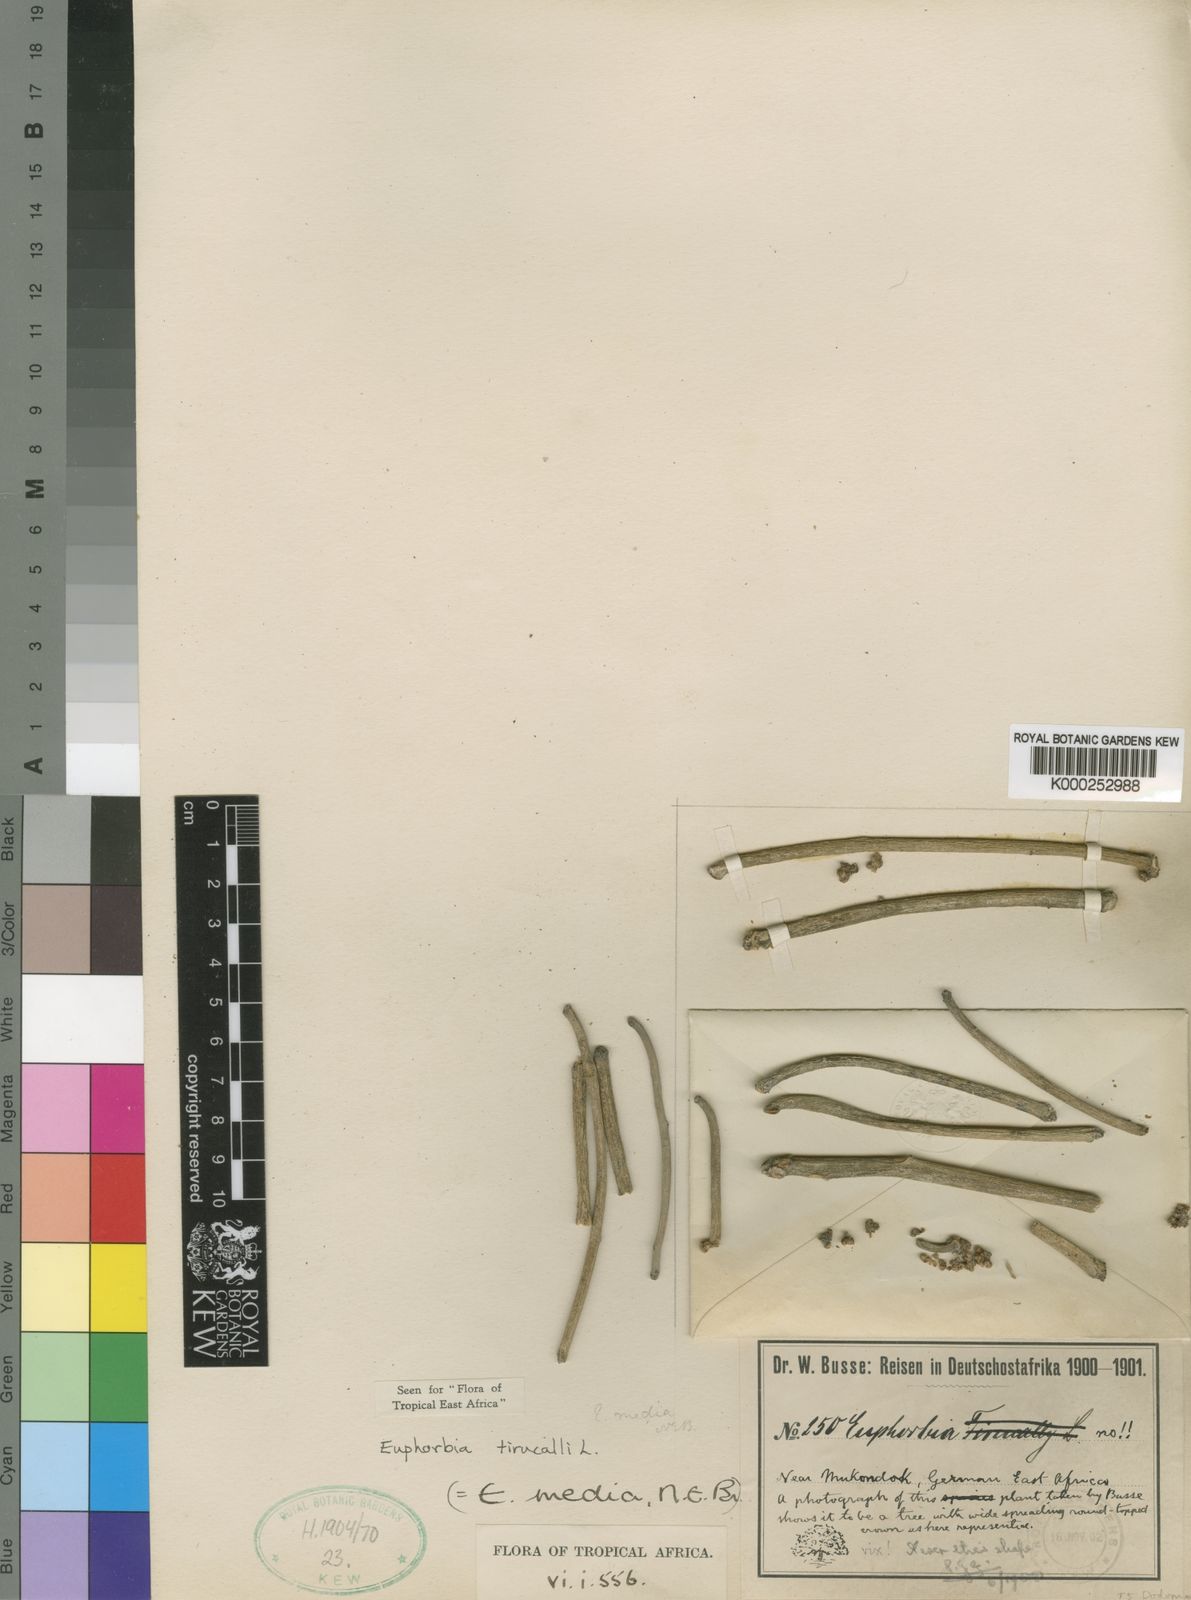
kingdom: Plantae
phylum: Tracheophyta
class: Magnoliopsida
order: Malpighiales
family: Euphorbiaceae
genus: Euphorbia
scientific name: Euphorbia tirucalli
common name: Indiantree spurge
